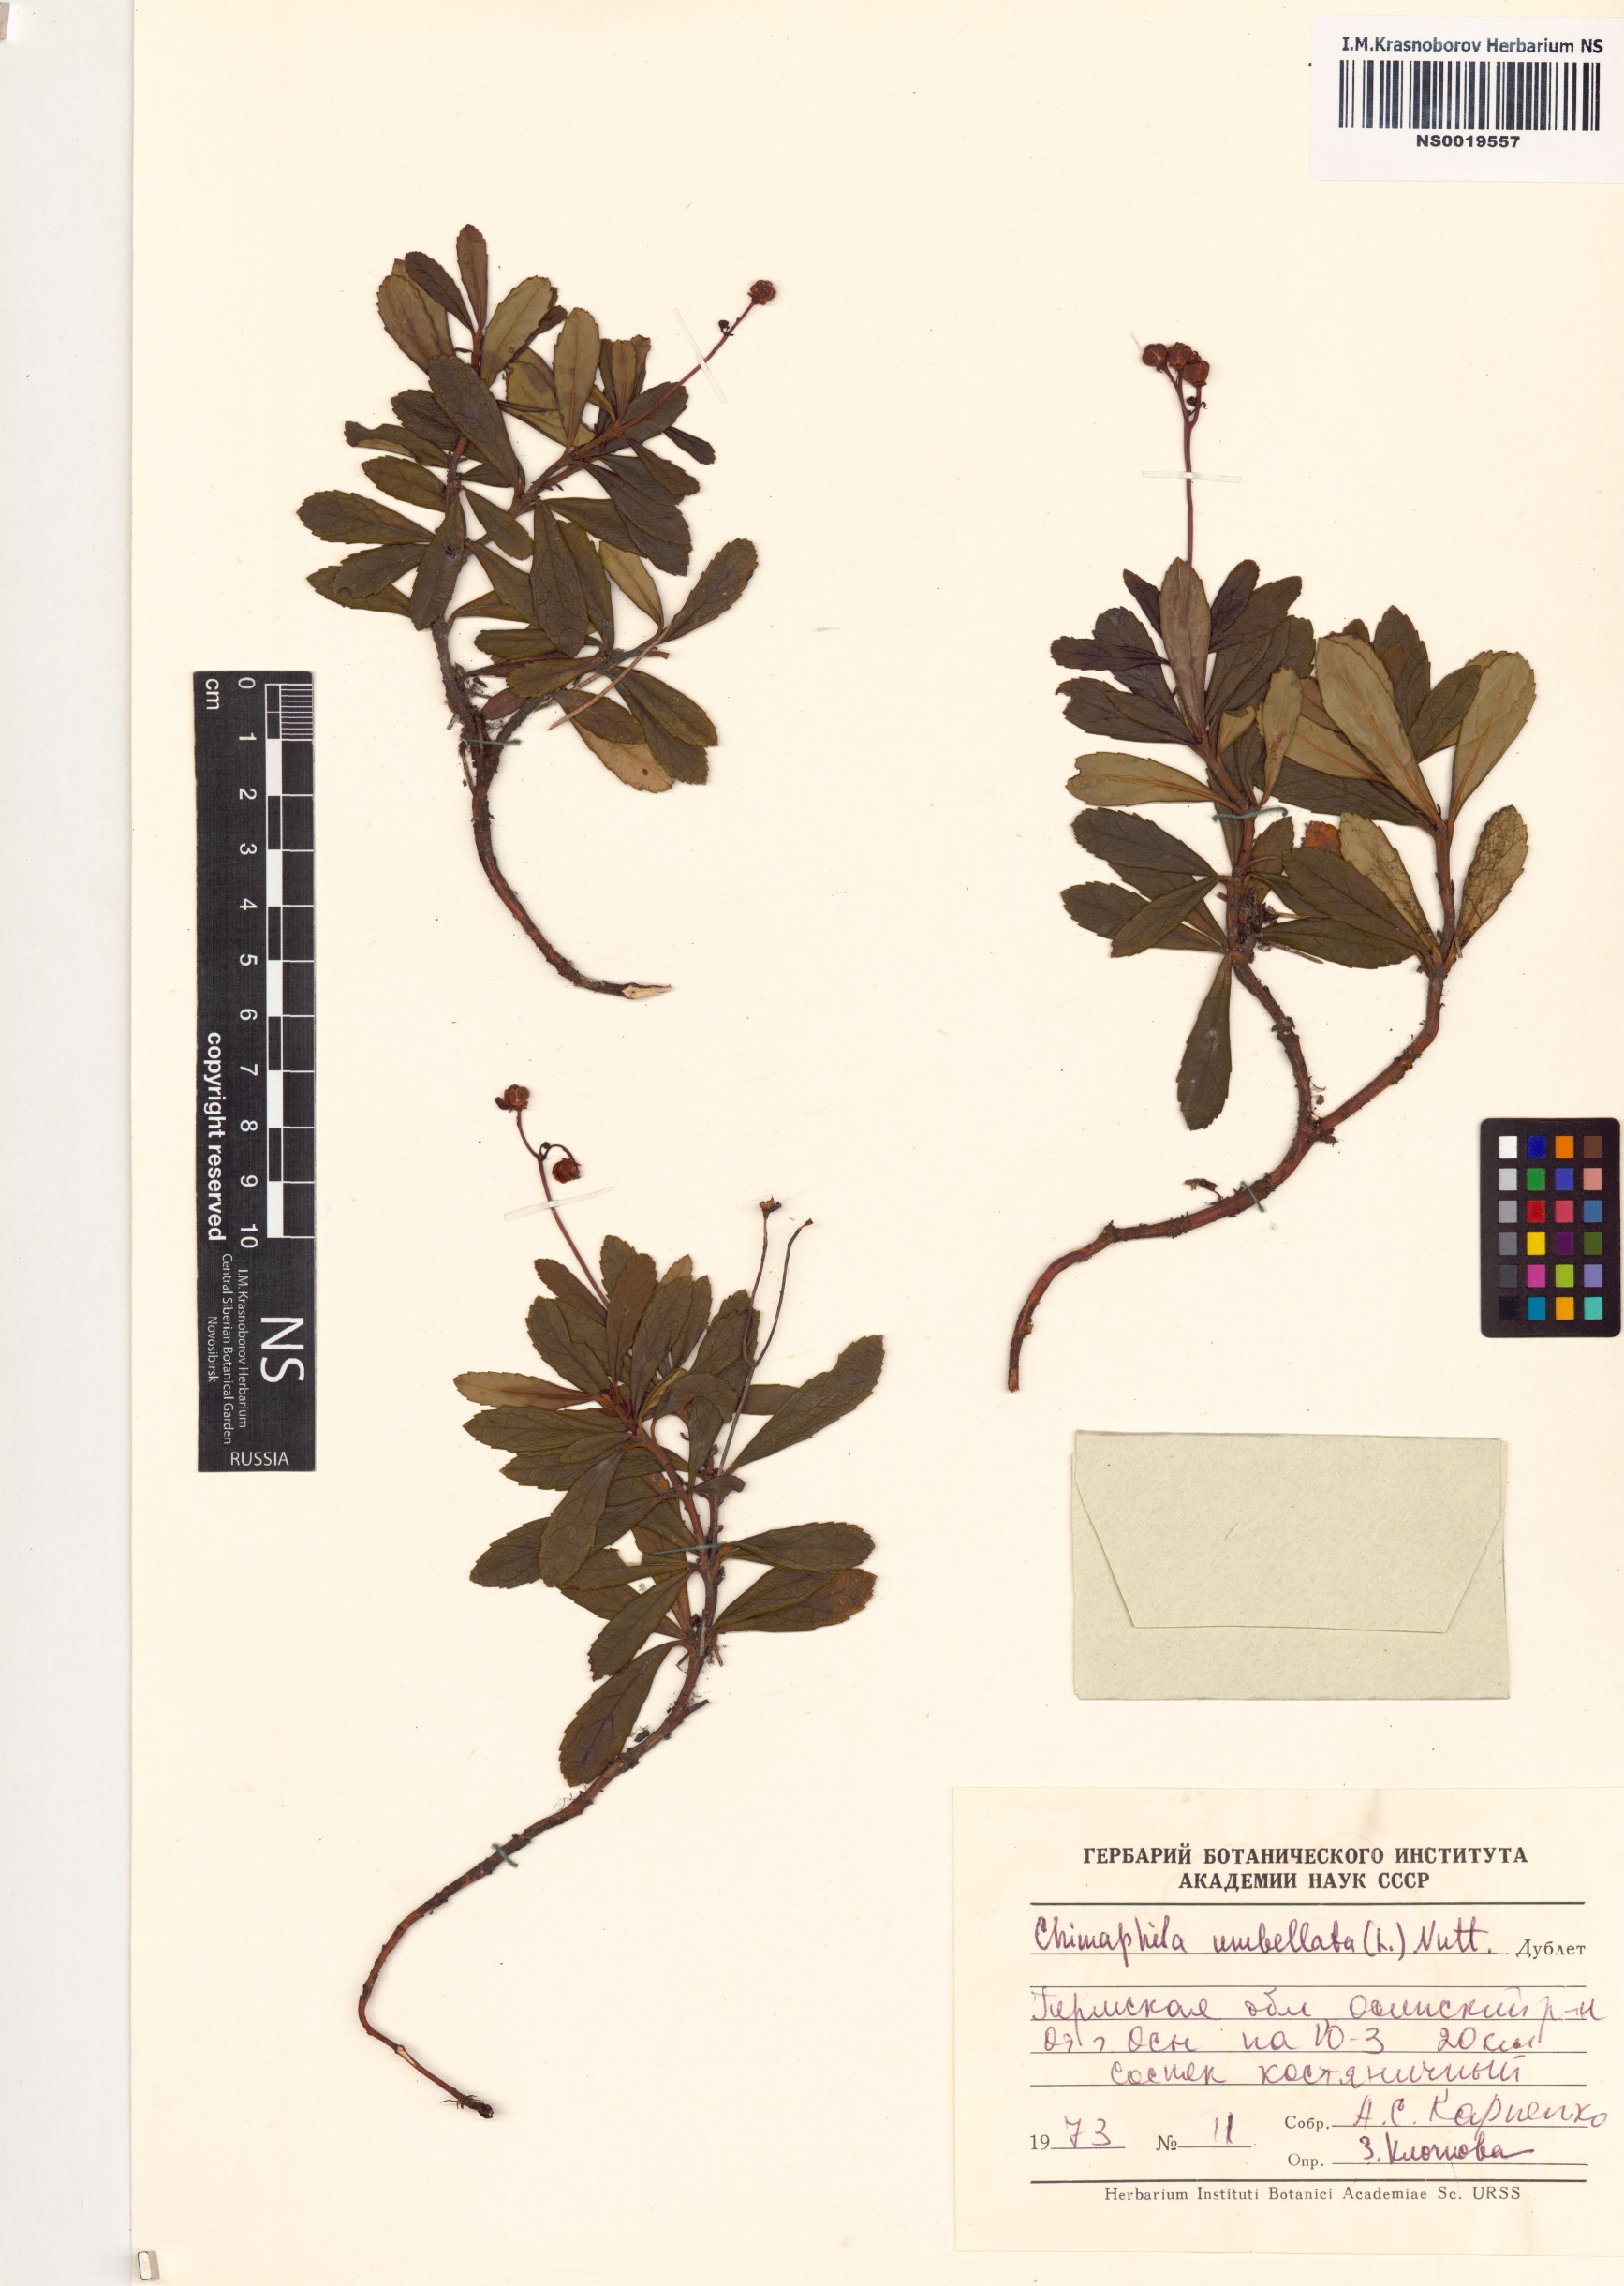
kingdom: Plantae
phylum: Tracheophyta
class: Magnoliopsida
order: Ericales
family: Ericaceae
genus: Chimaphila
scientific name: Chimaphila umbellata
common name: Pipsissewa
